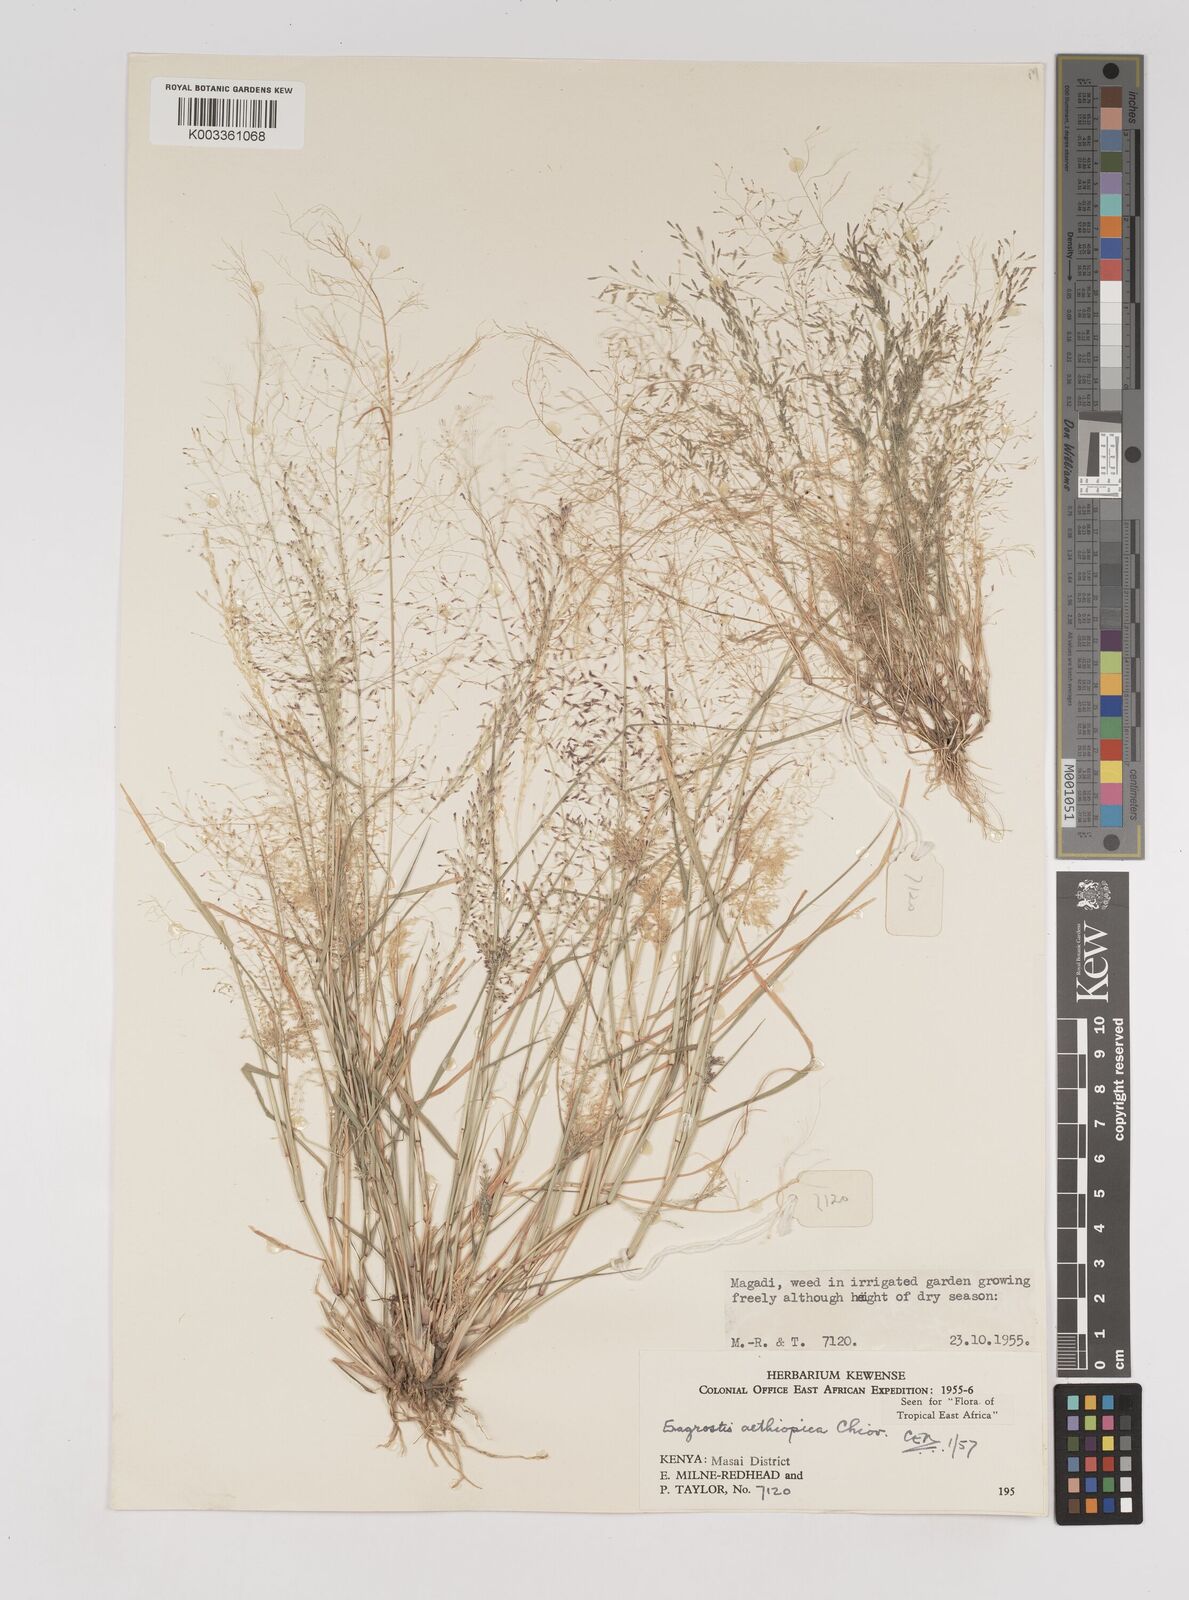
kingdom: Plantae
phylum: Tracheophyta
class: Liliopsida
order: Poales
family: Poaceae
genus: Eragrostis
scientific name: Eragrostis aethiopica
